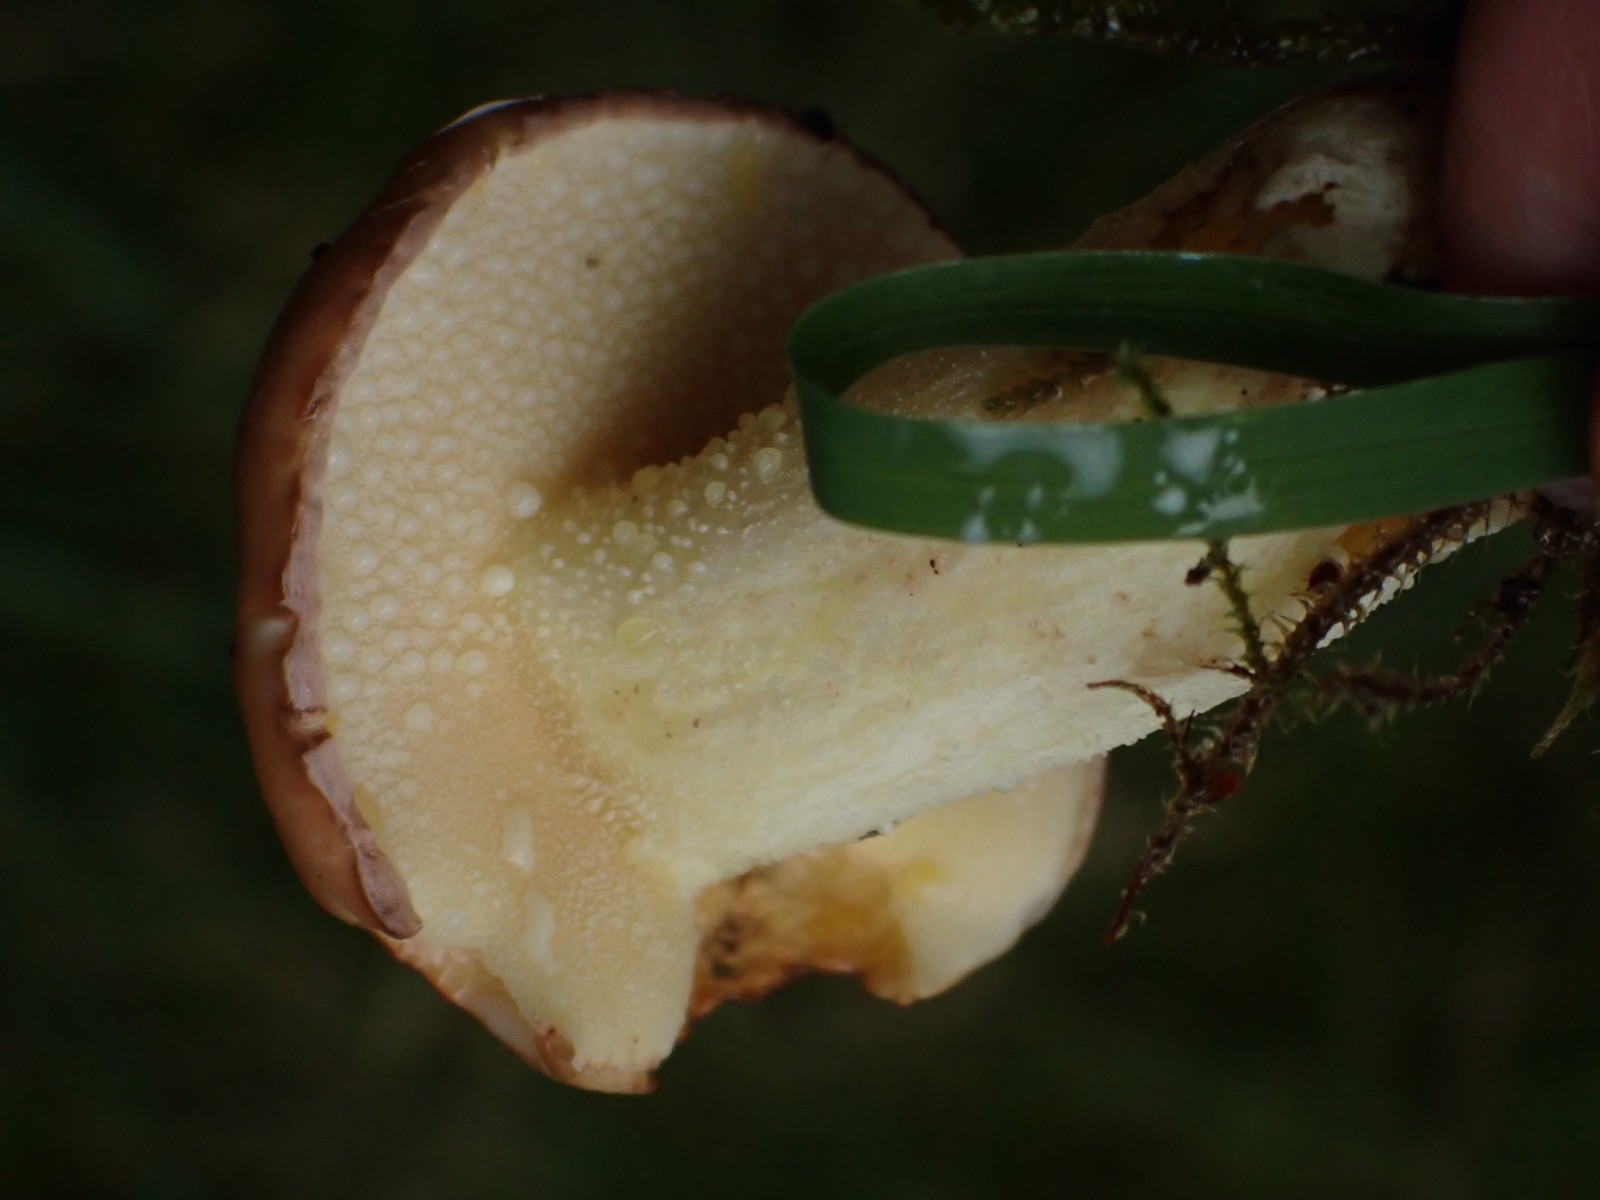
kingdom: Fungi
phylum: Basidiomycota
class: Agaricomycetes
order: Boletales
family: Suillaceae
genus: Suillus
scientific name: Suillus granulatus
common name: kornet slimrørhat
